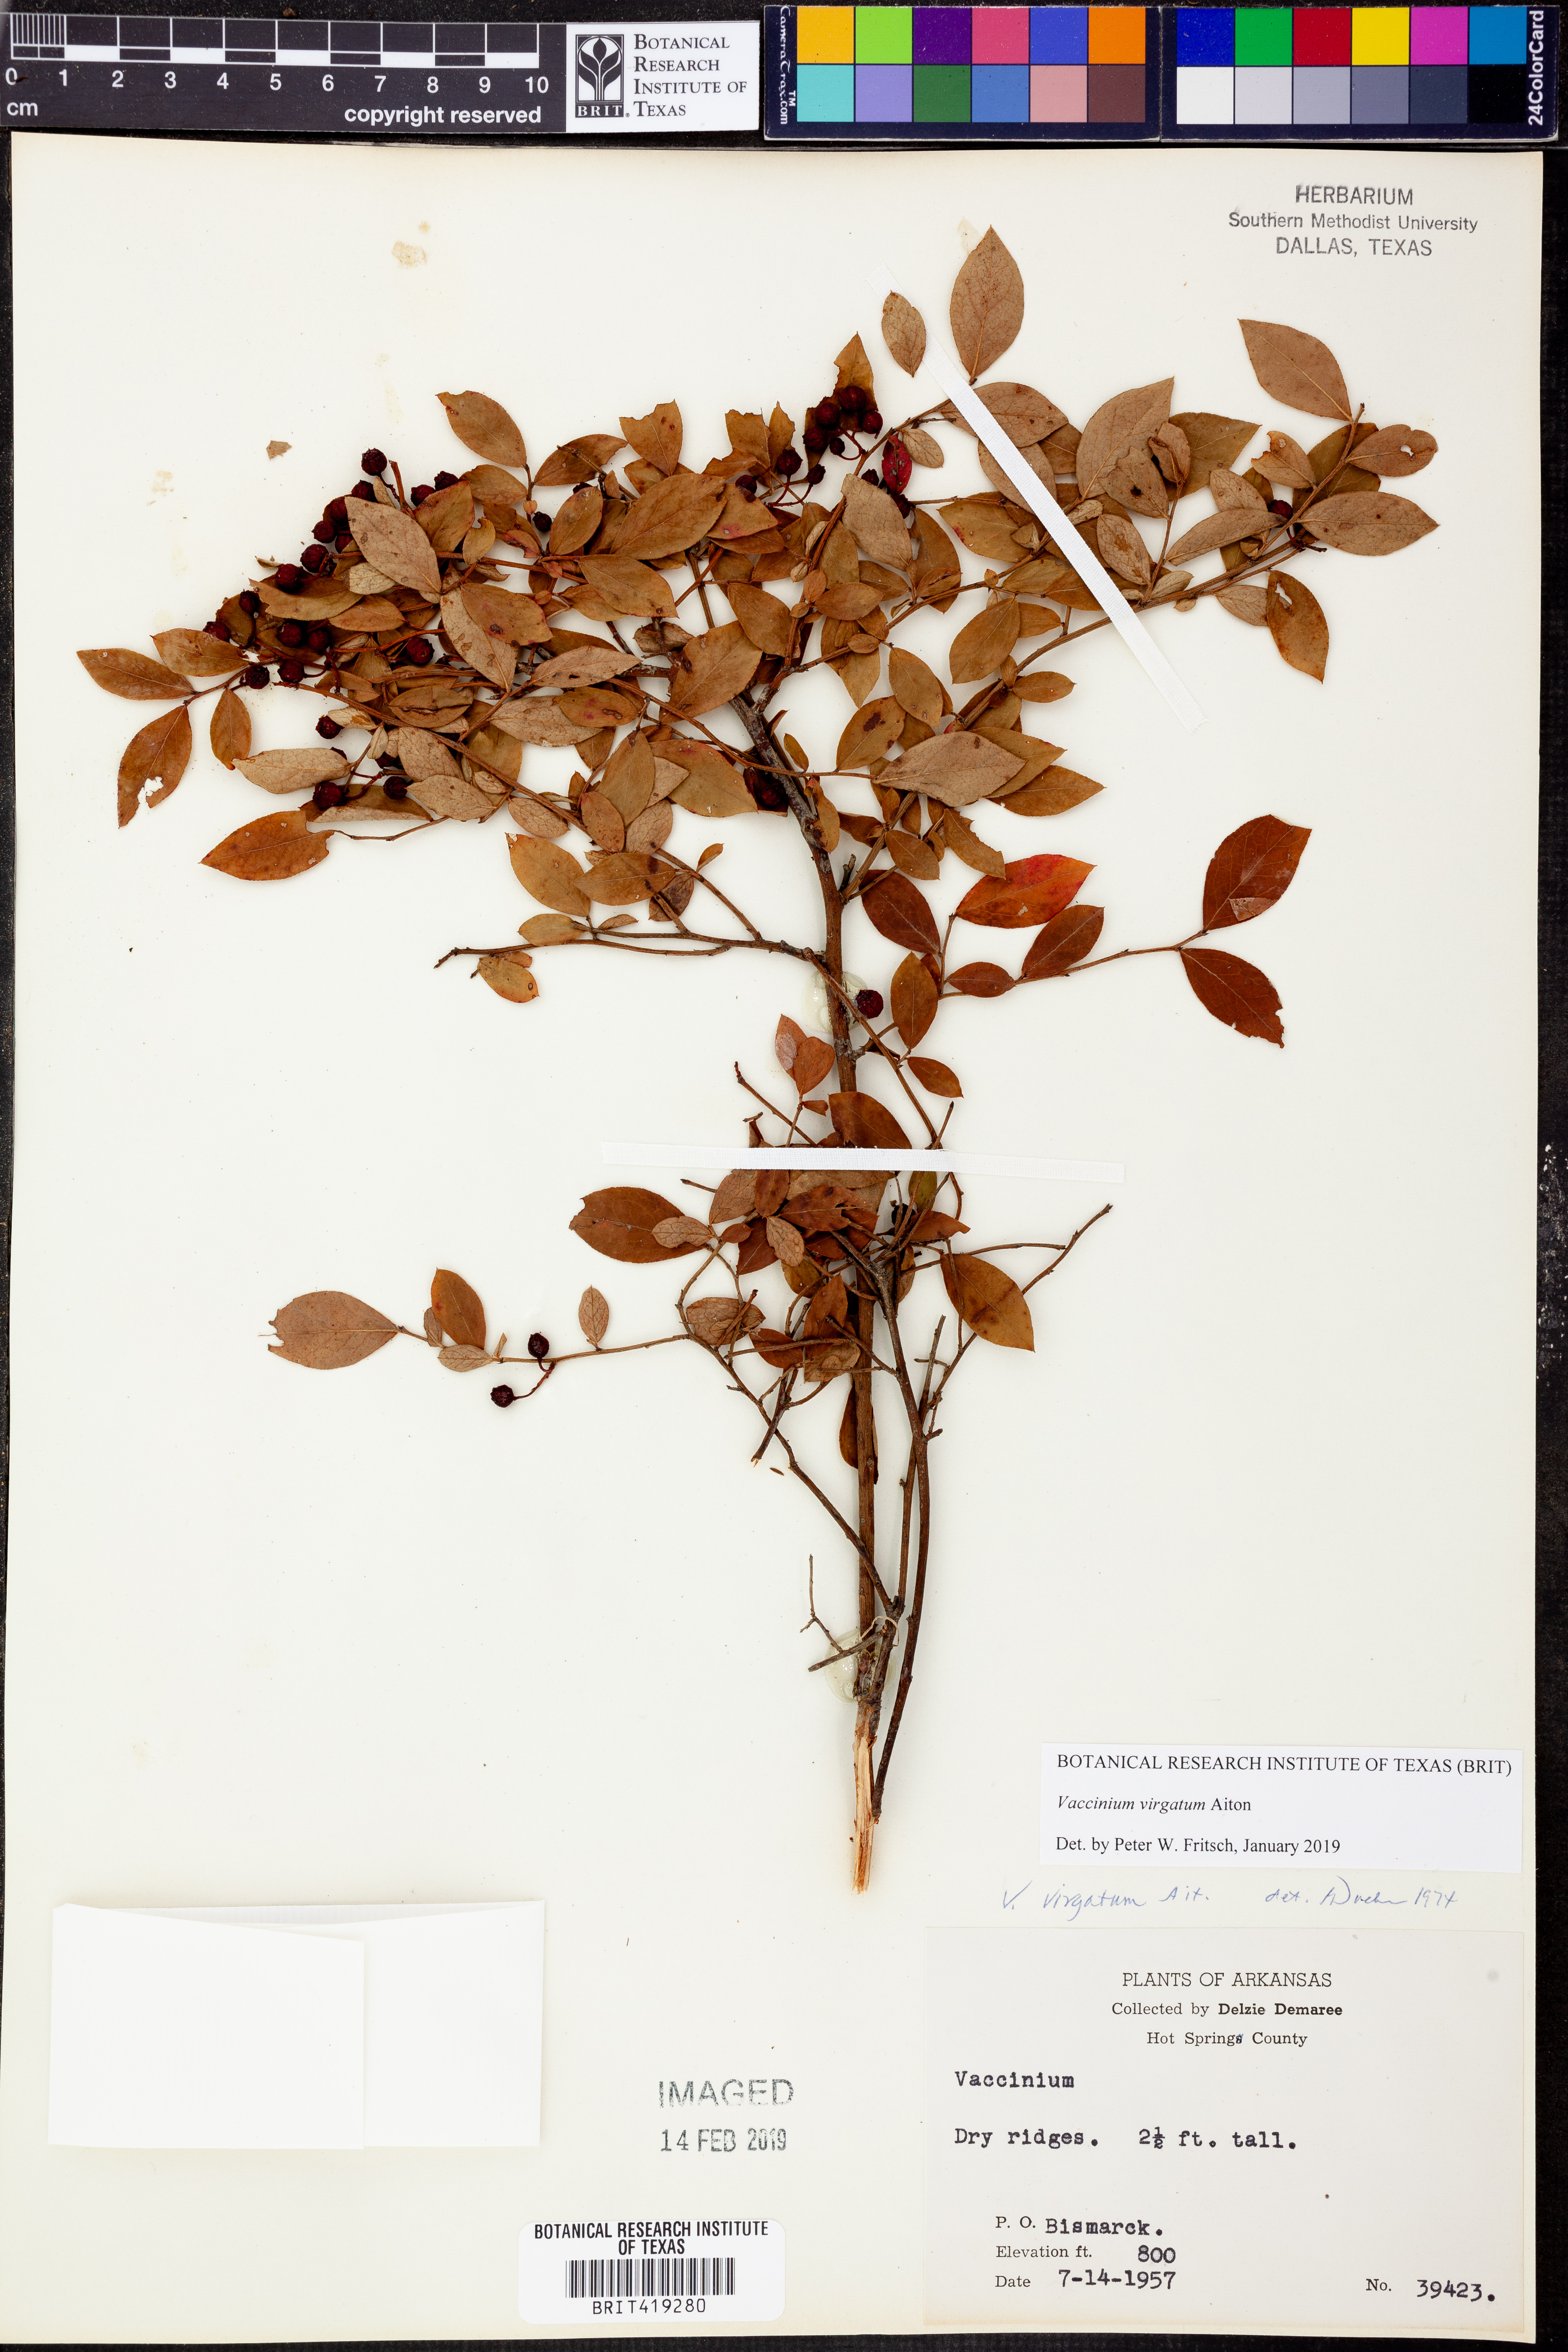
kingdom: Plantae
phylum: Tracheophyta
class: Magnoliopsida
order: Ericales
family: Ericaceae
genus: Vaccinium
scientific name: Vaccinium corymbosum
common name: Blueberry
